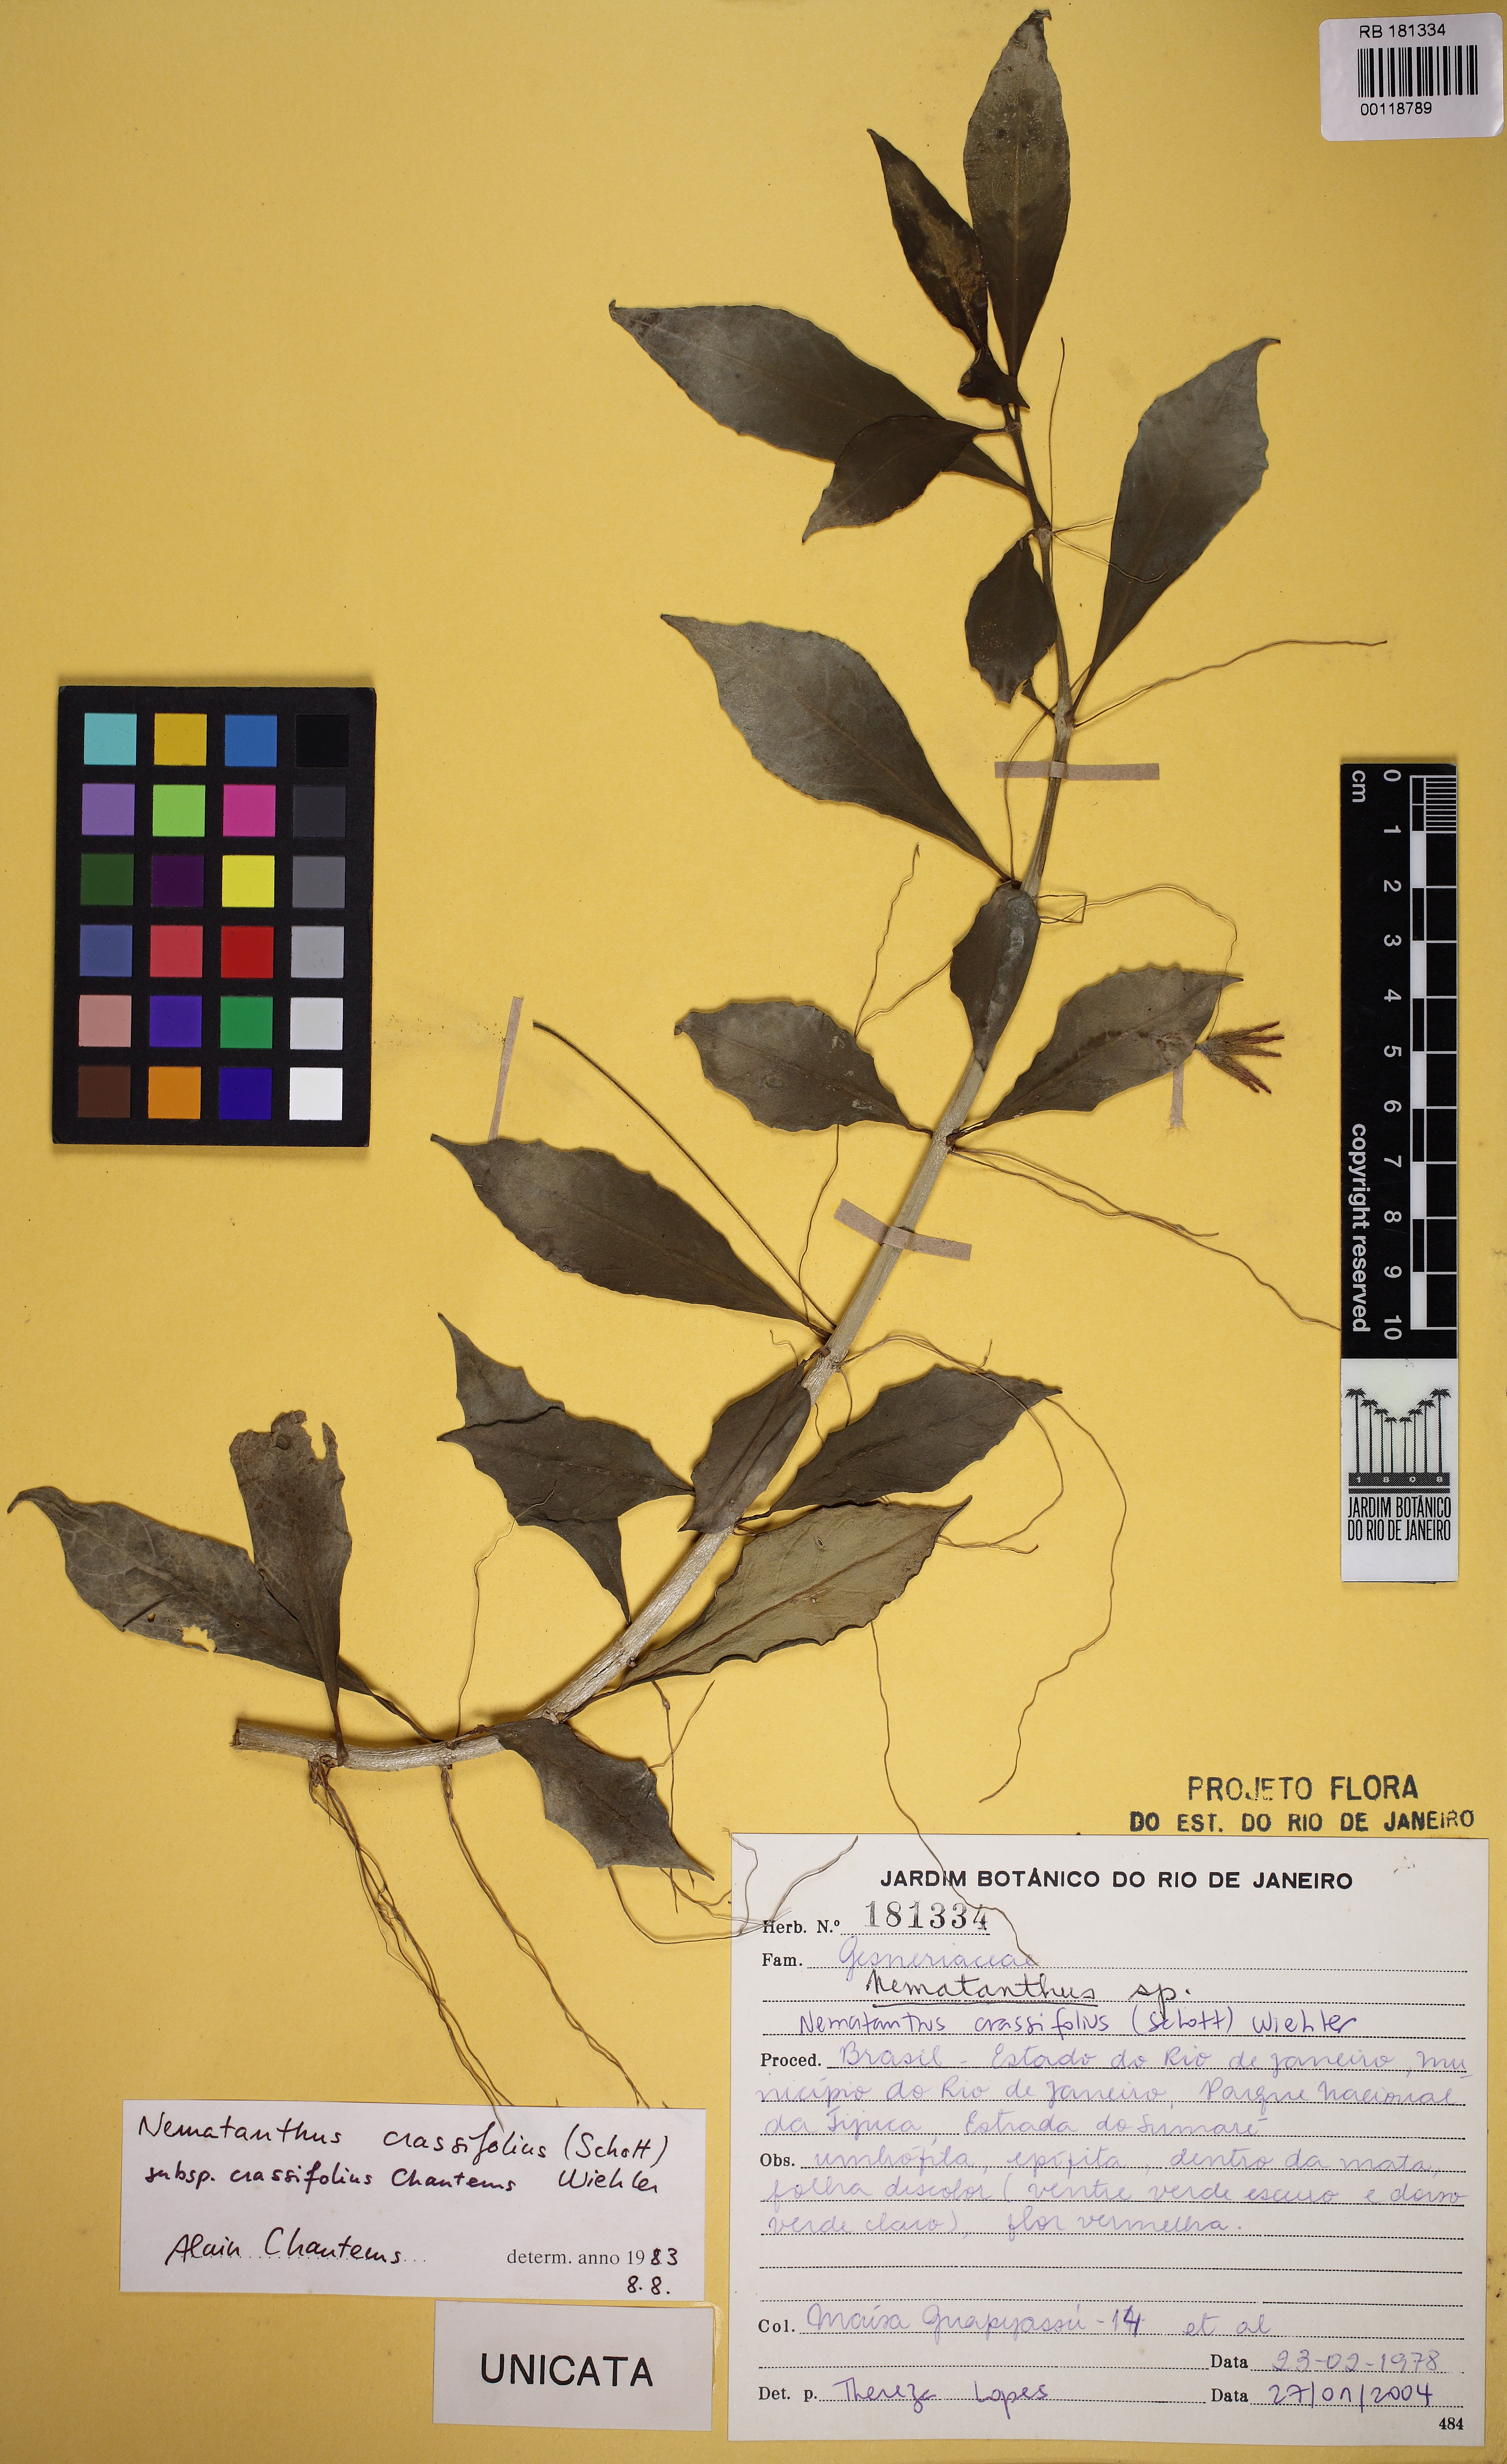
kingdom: Plantae
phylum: Tracheophyta
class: Magnoliopsida
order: Lamiales
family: Gesneriaceae
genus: Nematanthus
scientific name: Nematanthus crassifolius
